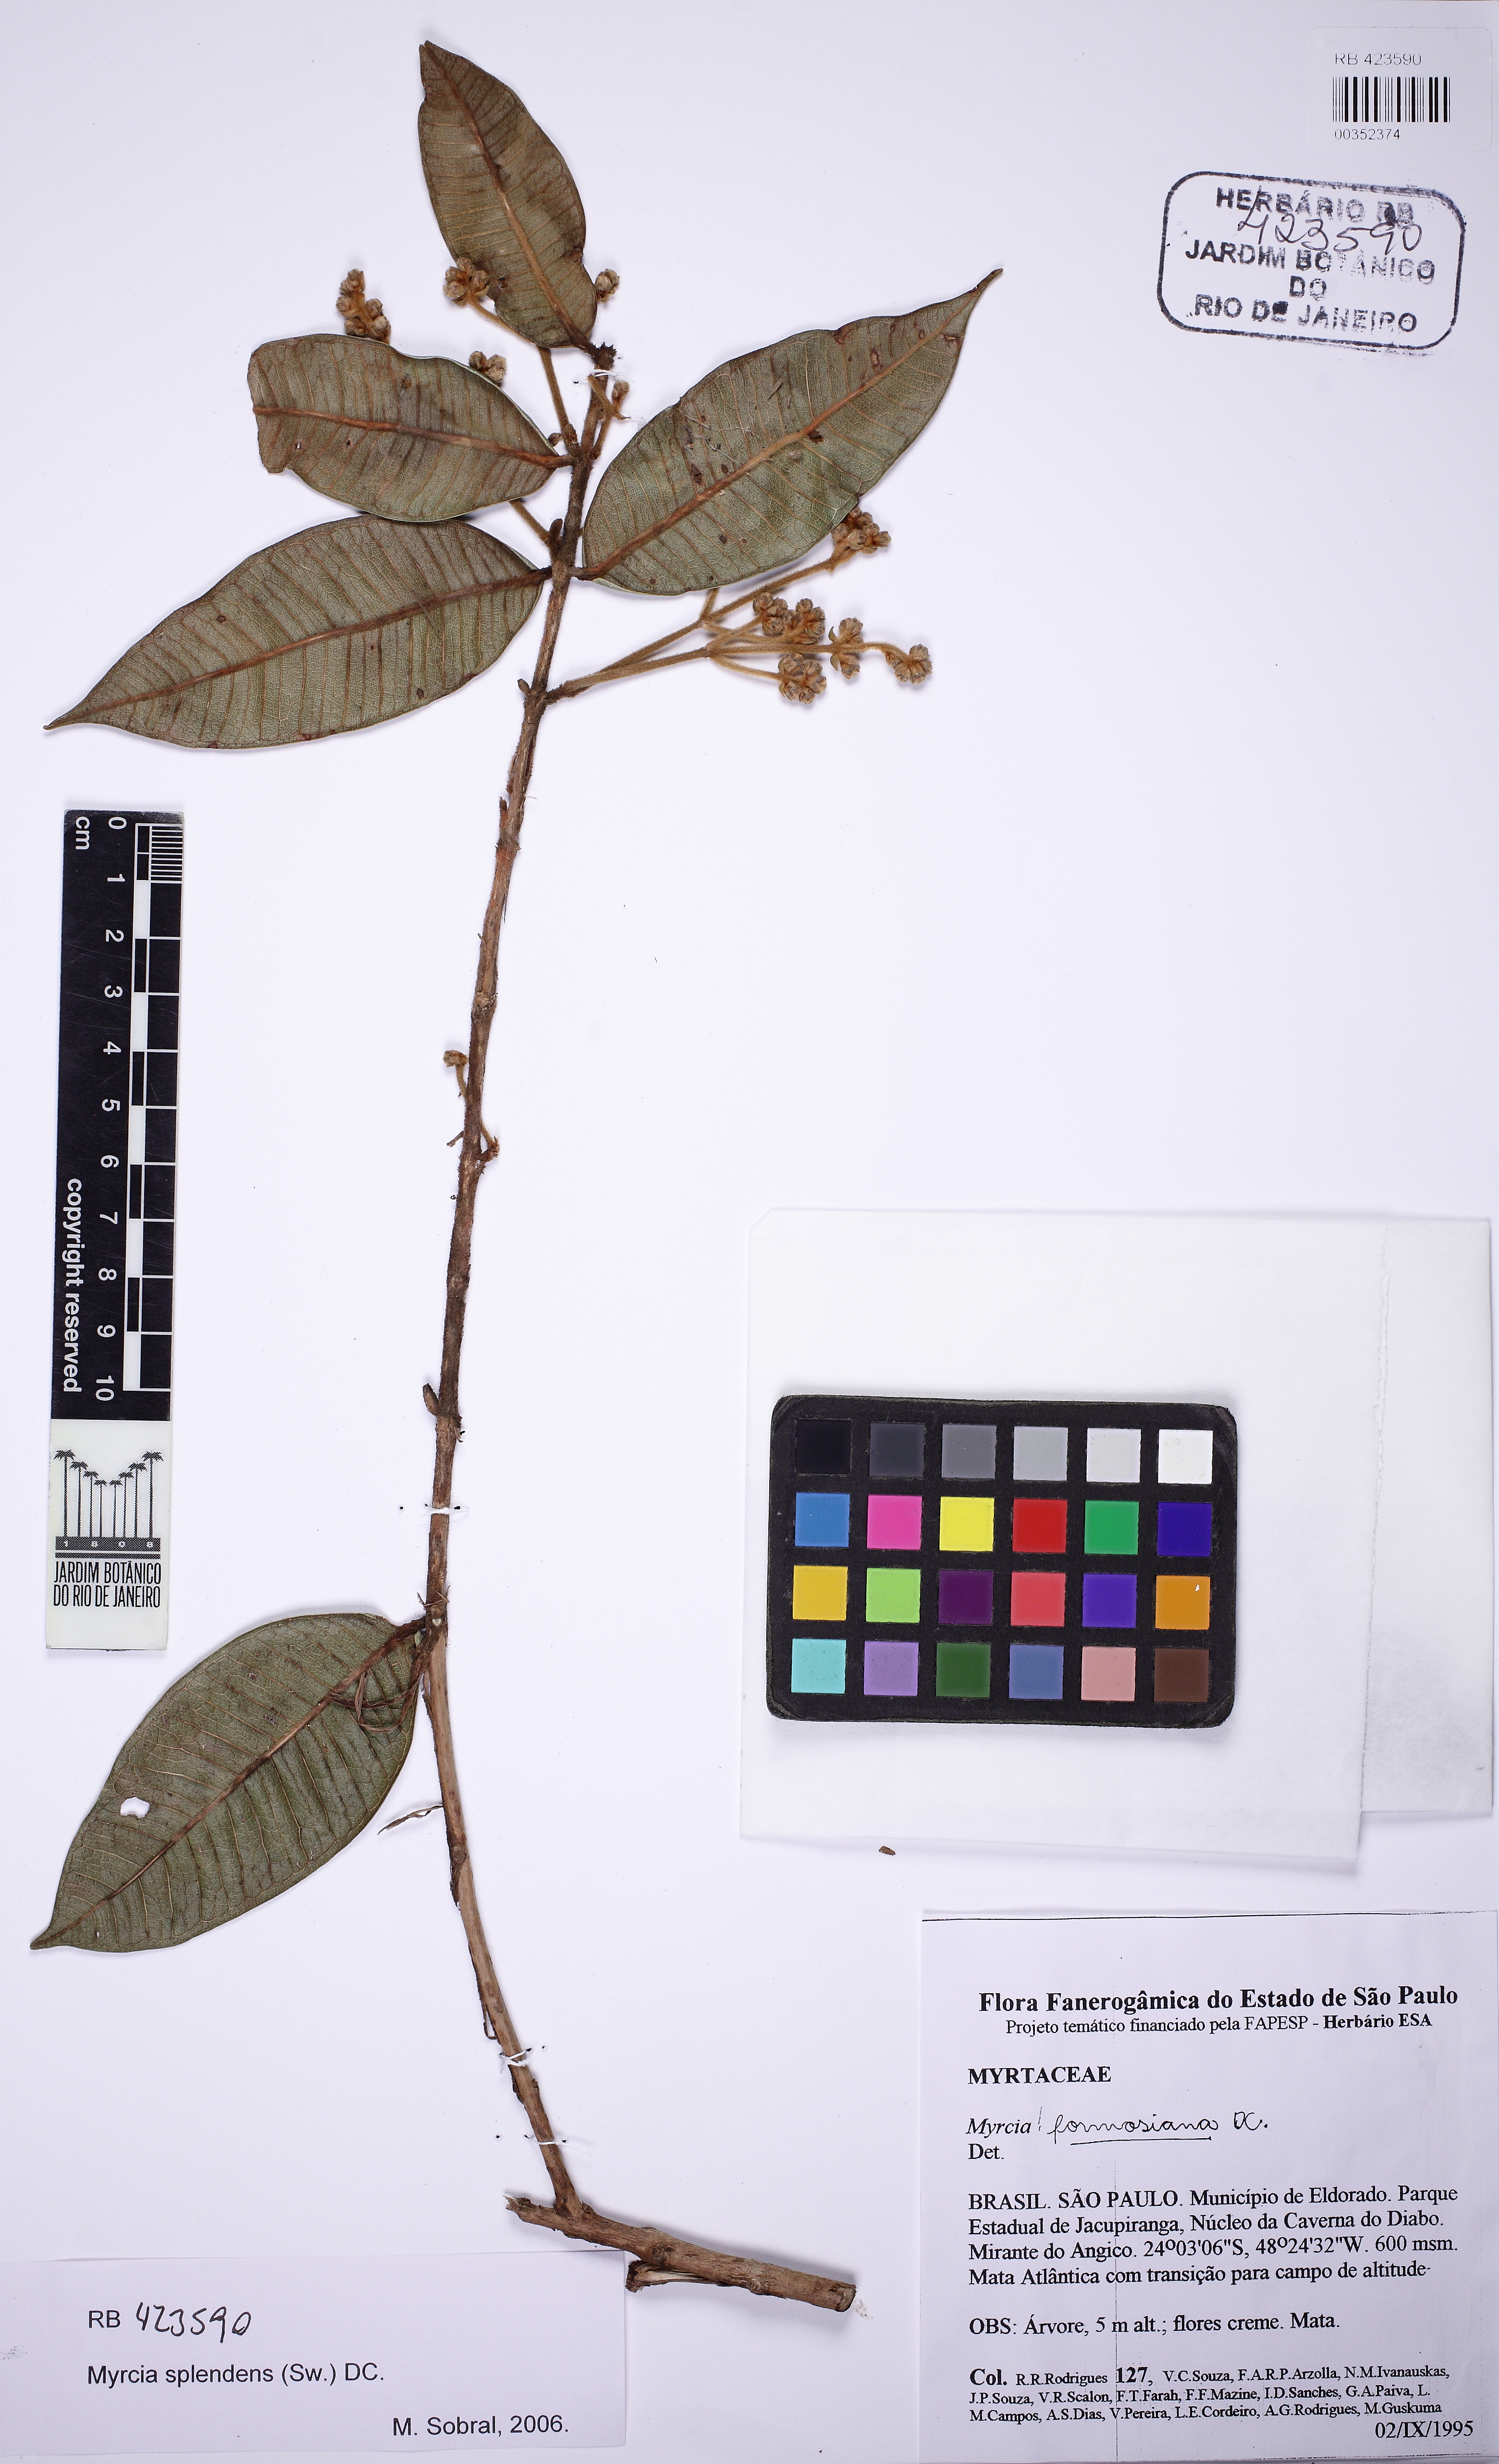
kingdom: Plantae
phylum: Tracheophyta
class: Magnoliopsida
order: Myrtales
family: Myrtaceae
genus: Myrcia
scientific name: Myrcia splendens
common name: Surinam cherry
